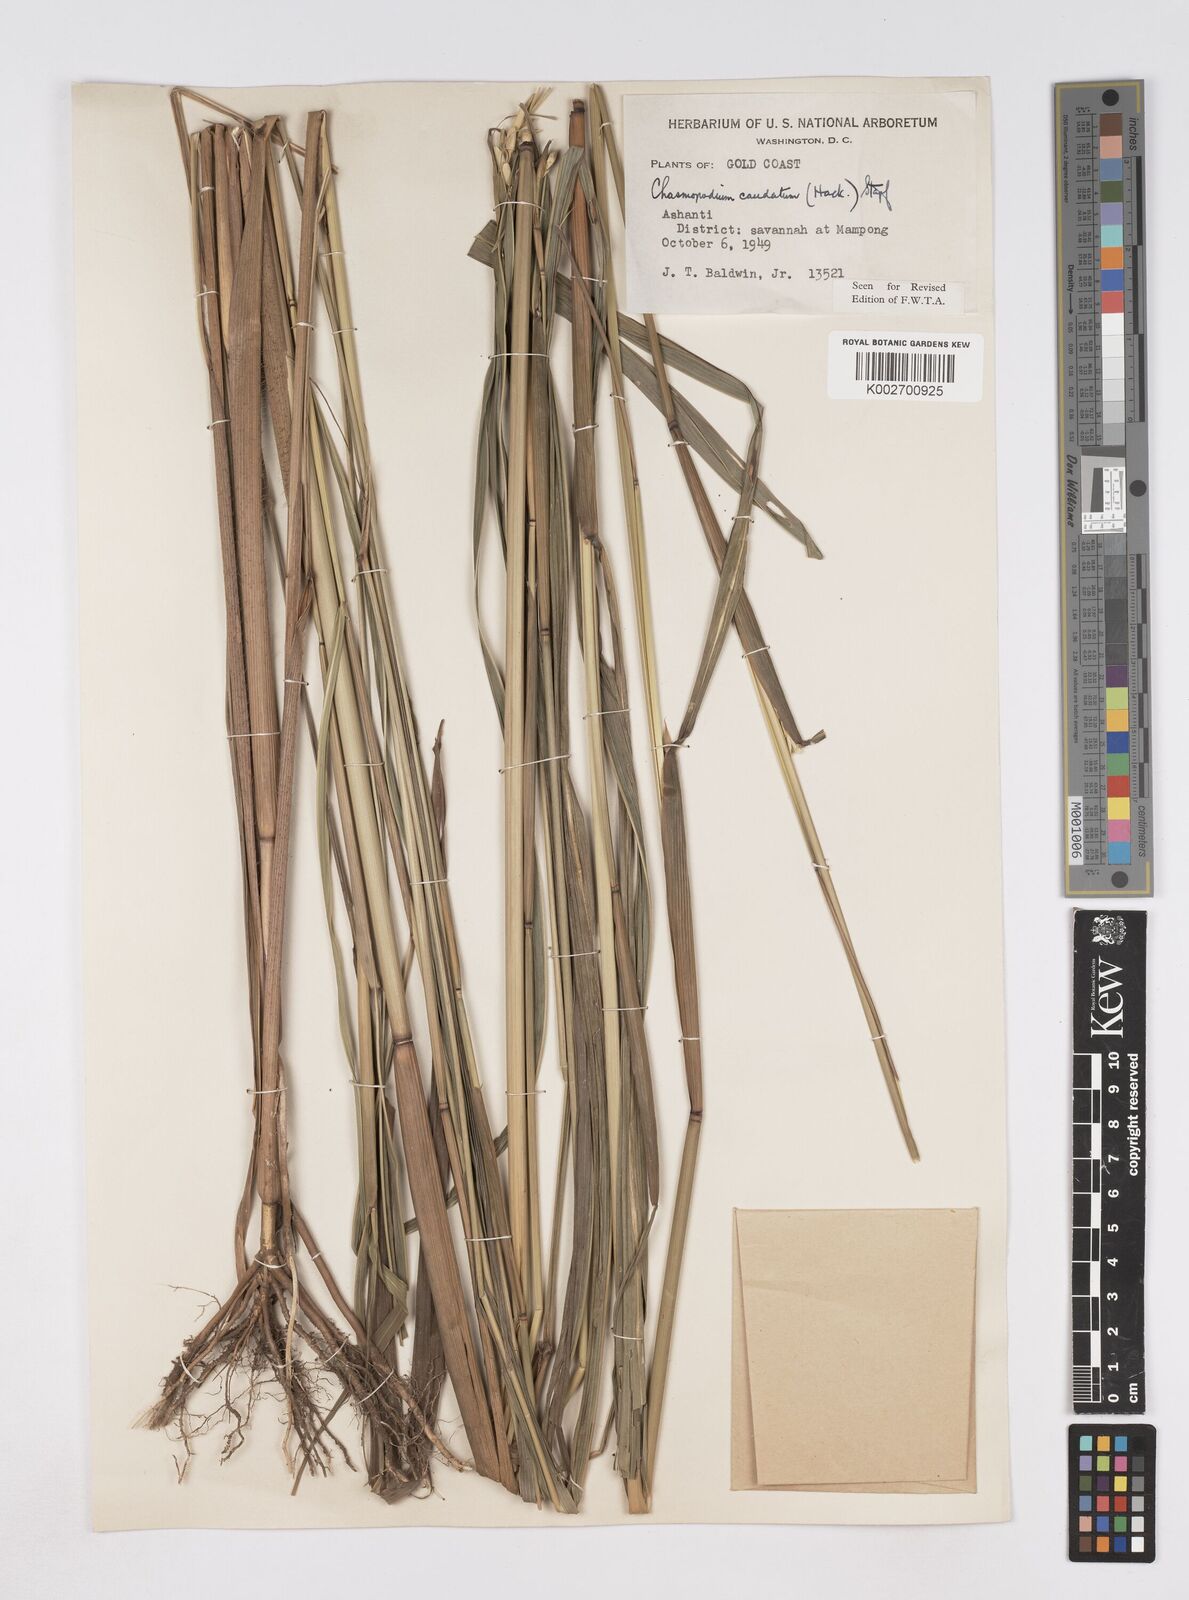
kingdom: Plantae
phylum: Tracheophyta
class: Liliopsida
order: Poales
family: Poaceae
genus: Chasmopodium
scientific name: Chasmopodium caudatum
